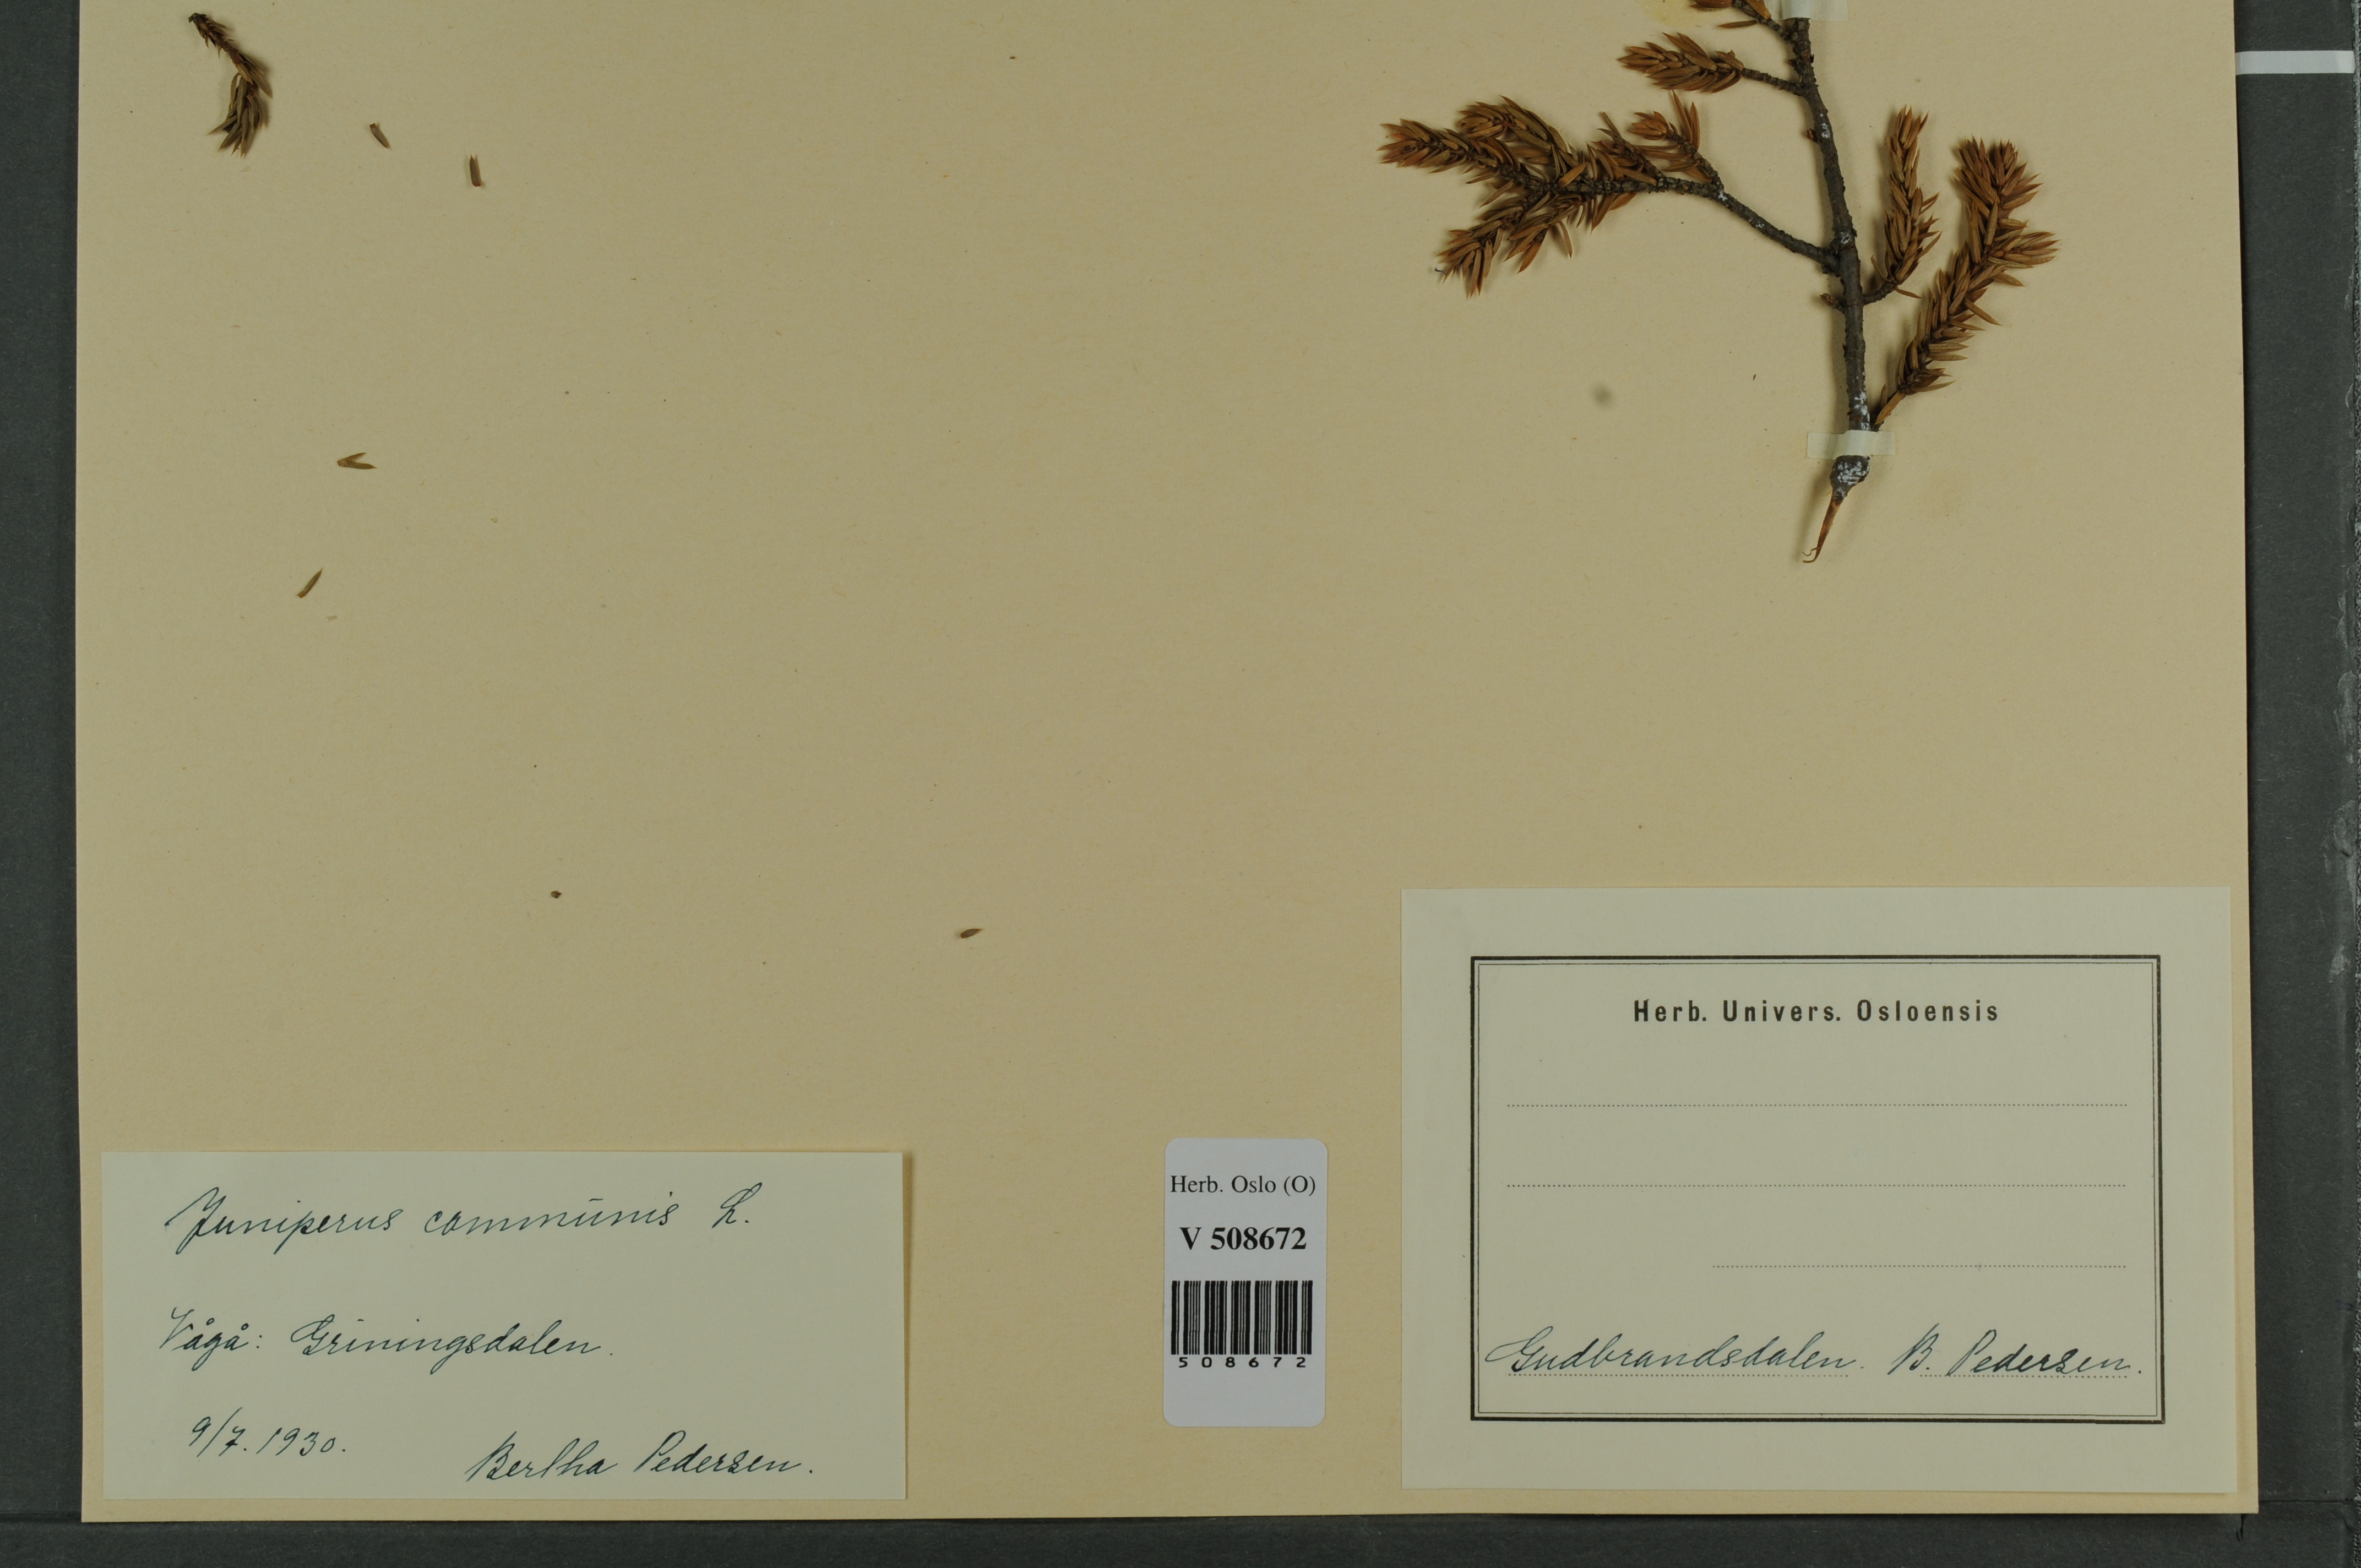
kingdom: Plantae
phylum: Tracheophyta
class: Pinopsida
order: Pinales
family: Cupressaceae
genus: Juniperus
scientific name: Juniperus communis
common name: Common juniper
